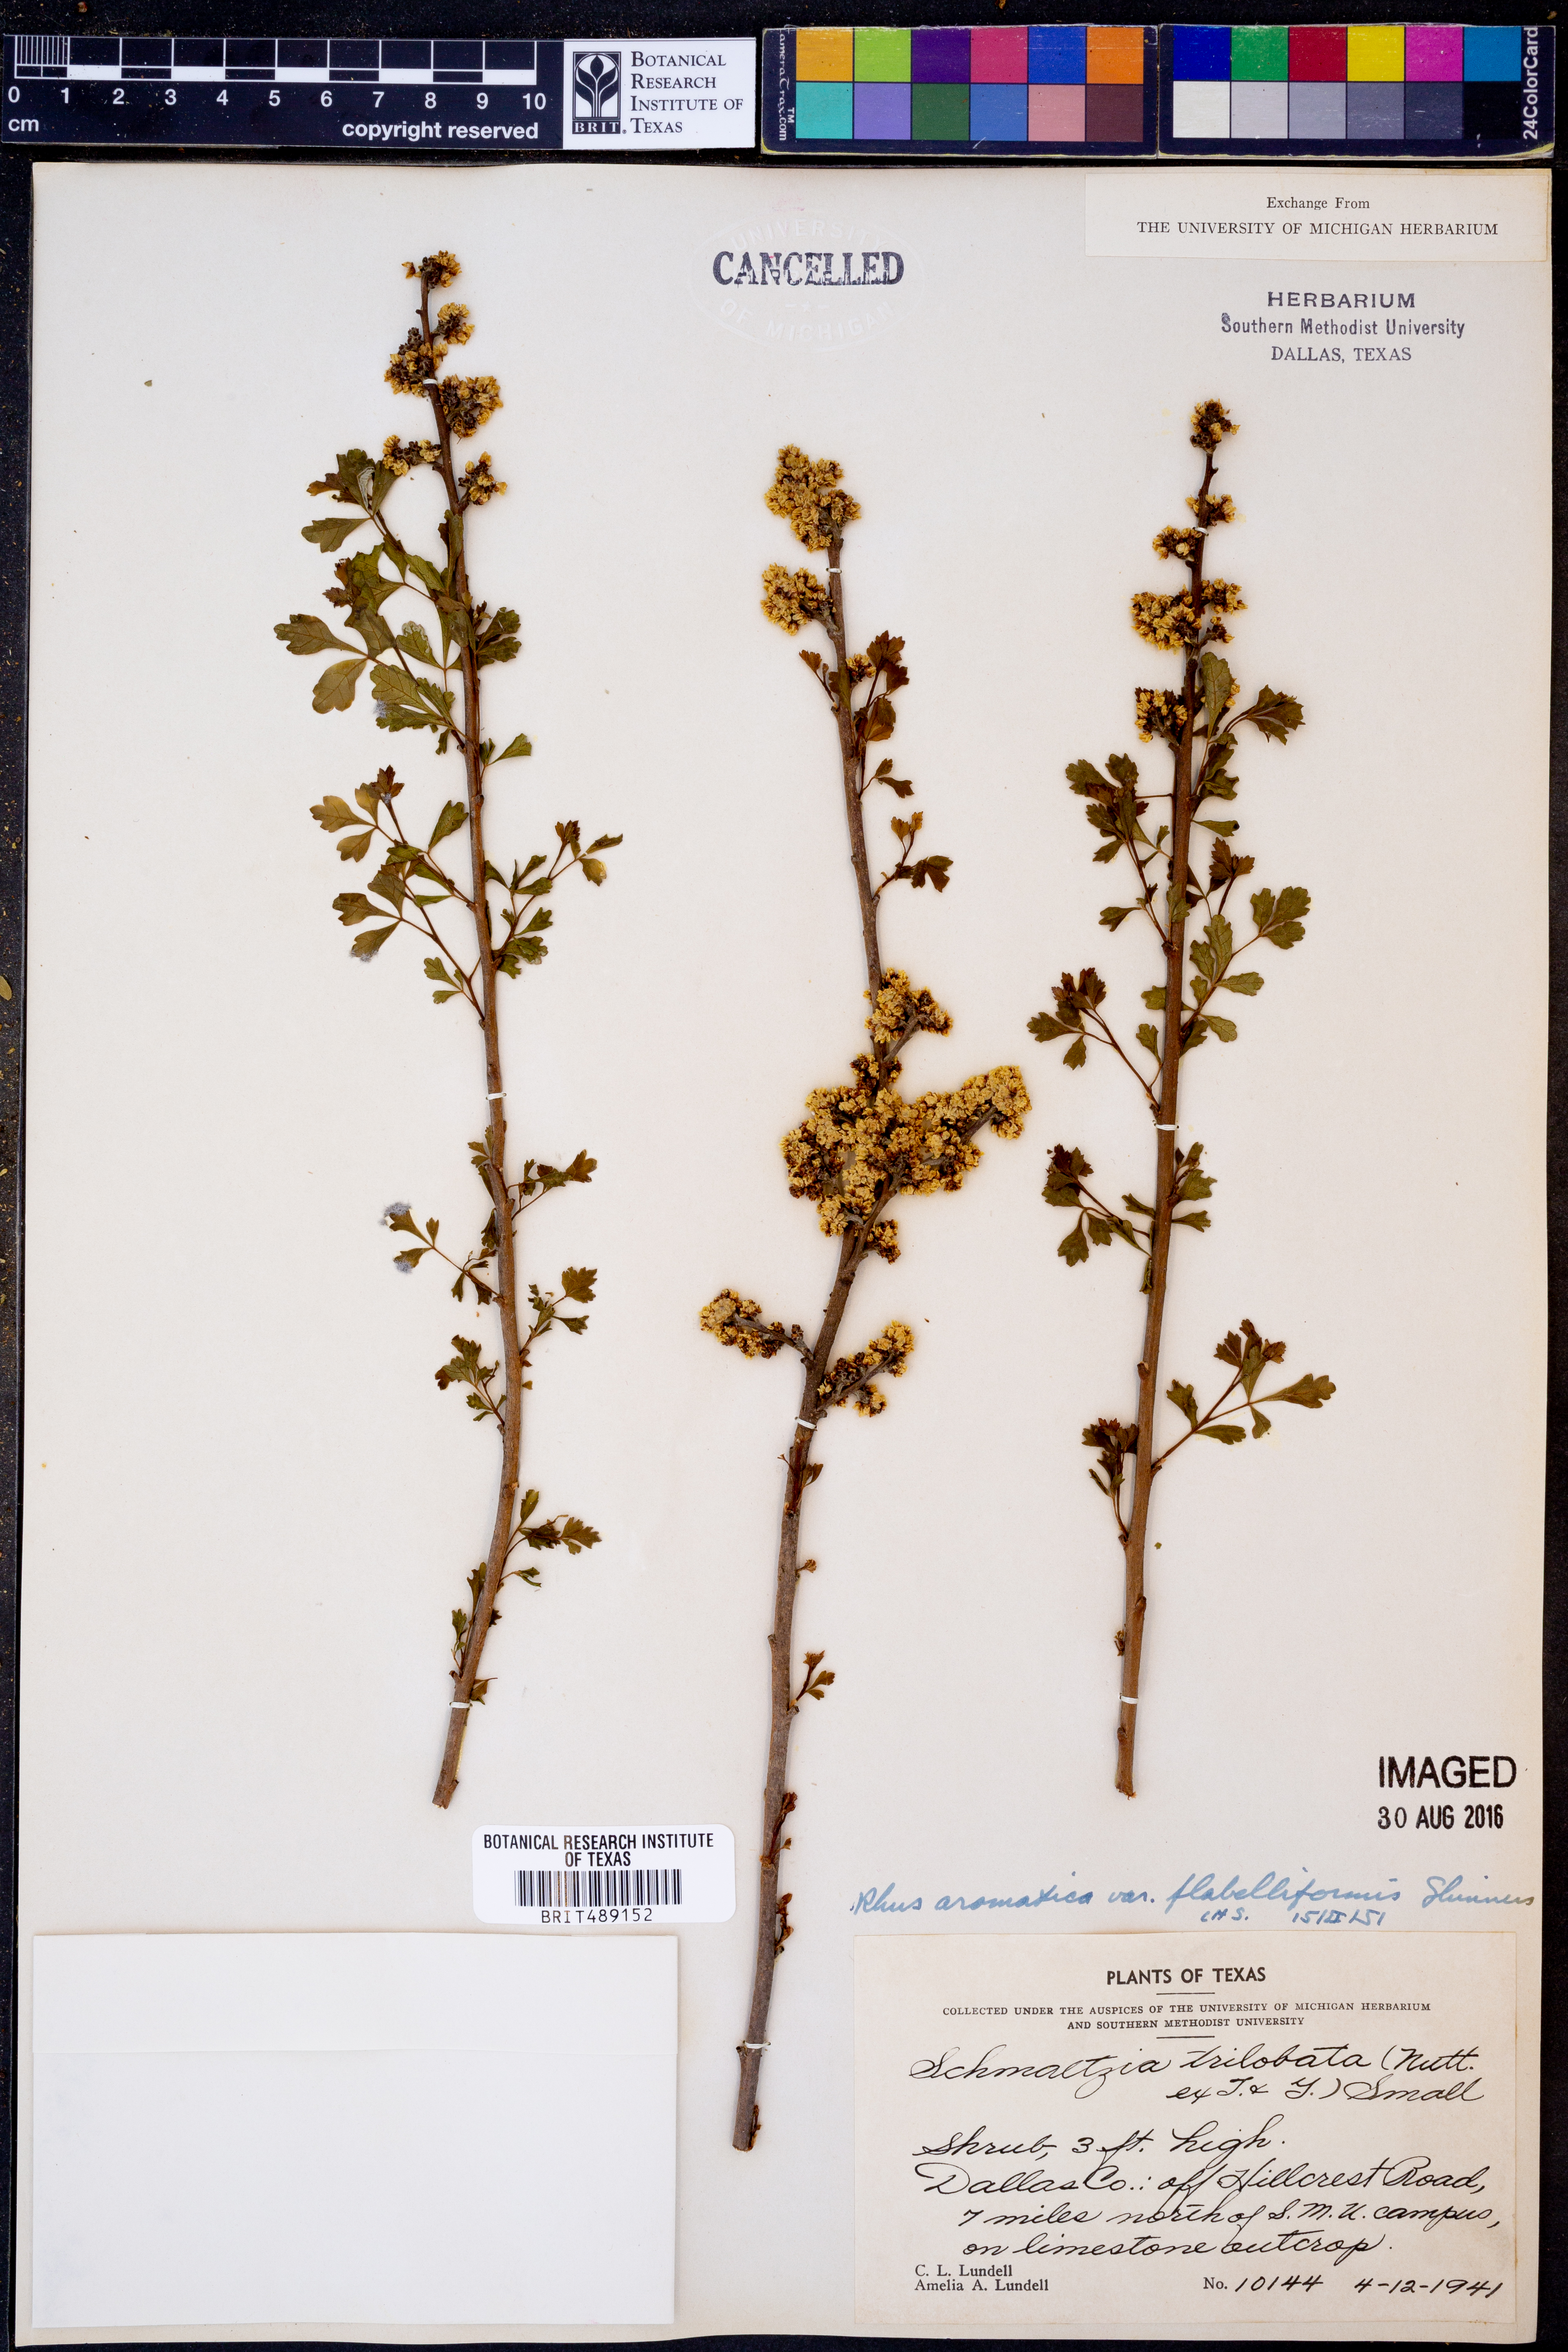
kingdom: Plantae
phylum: Tracheophyta
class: Magnoliopsida
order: Sapindales
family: Anacardiaceae
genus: Rhus
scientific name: Rhus trilobata
